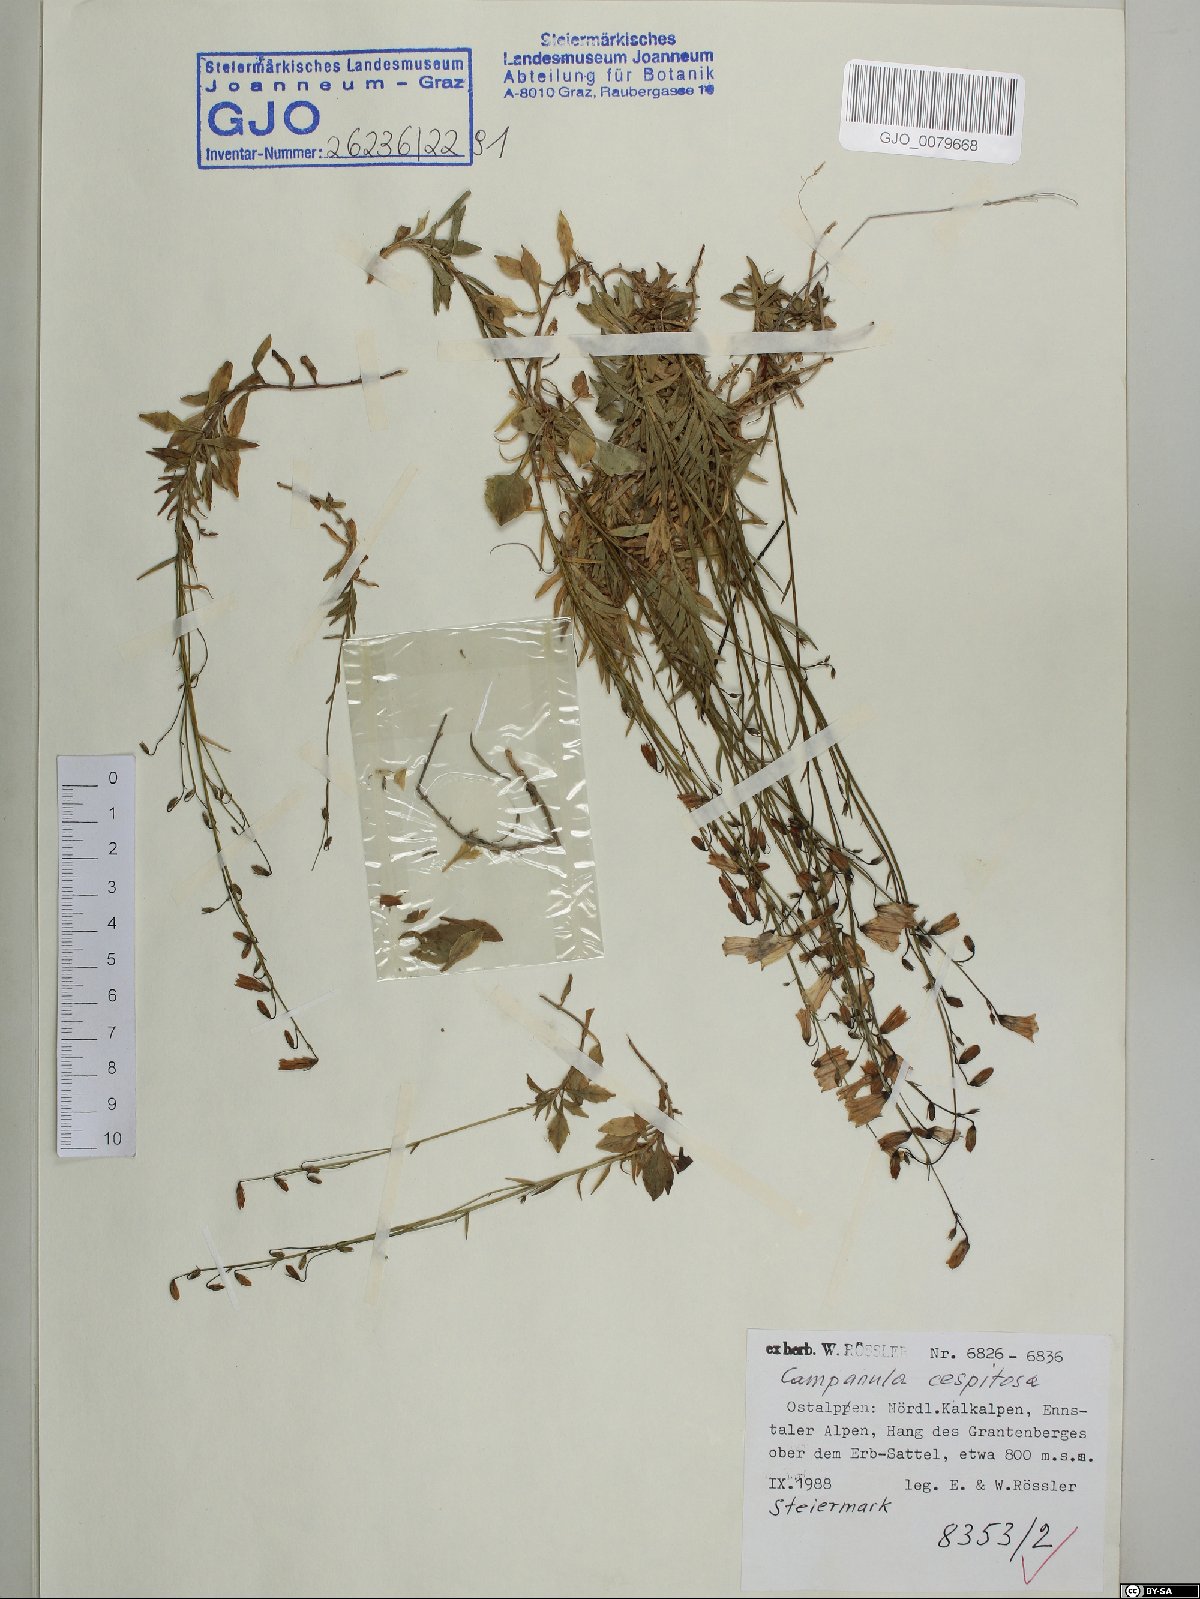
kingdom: Plantae
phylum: Tracheophyta
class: Magnoliopsida
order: Asterales
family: Campanulaceae
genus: Campanula
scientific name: Campanula cespitosa
